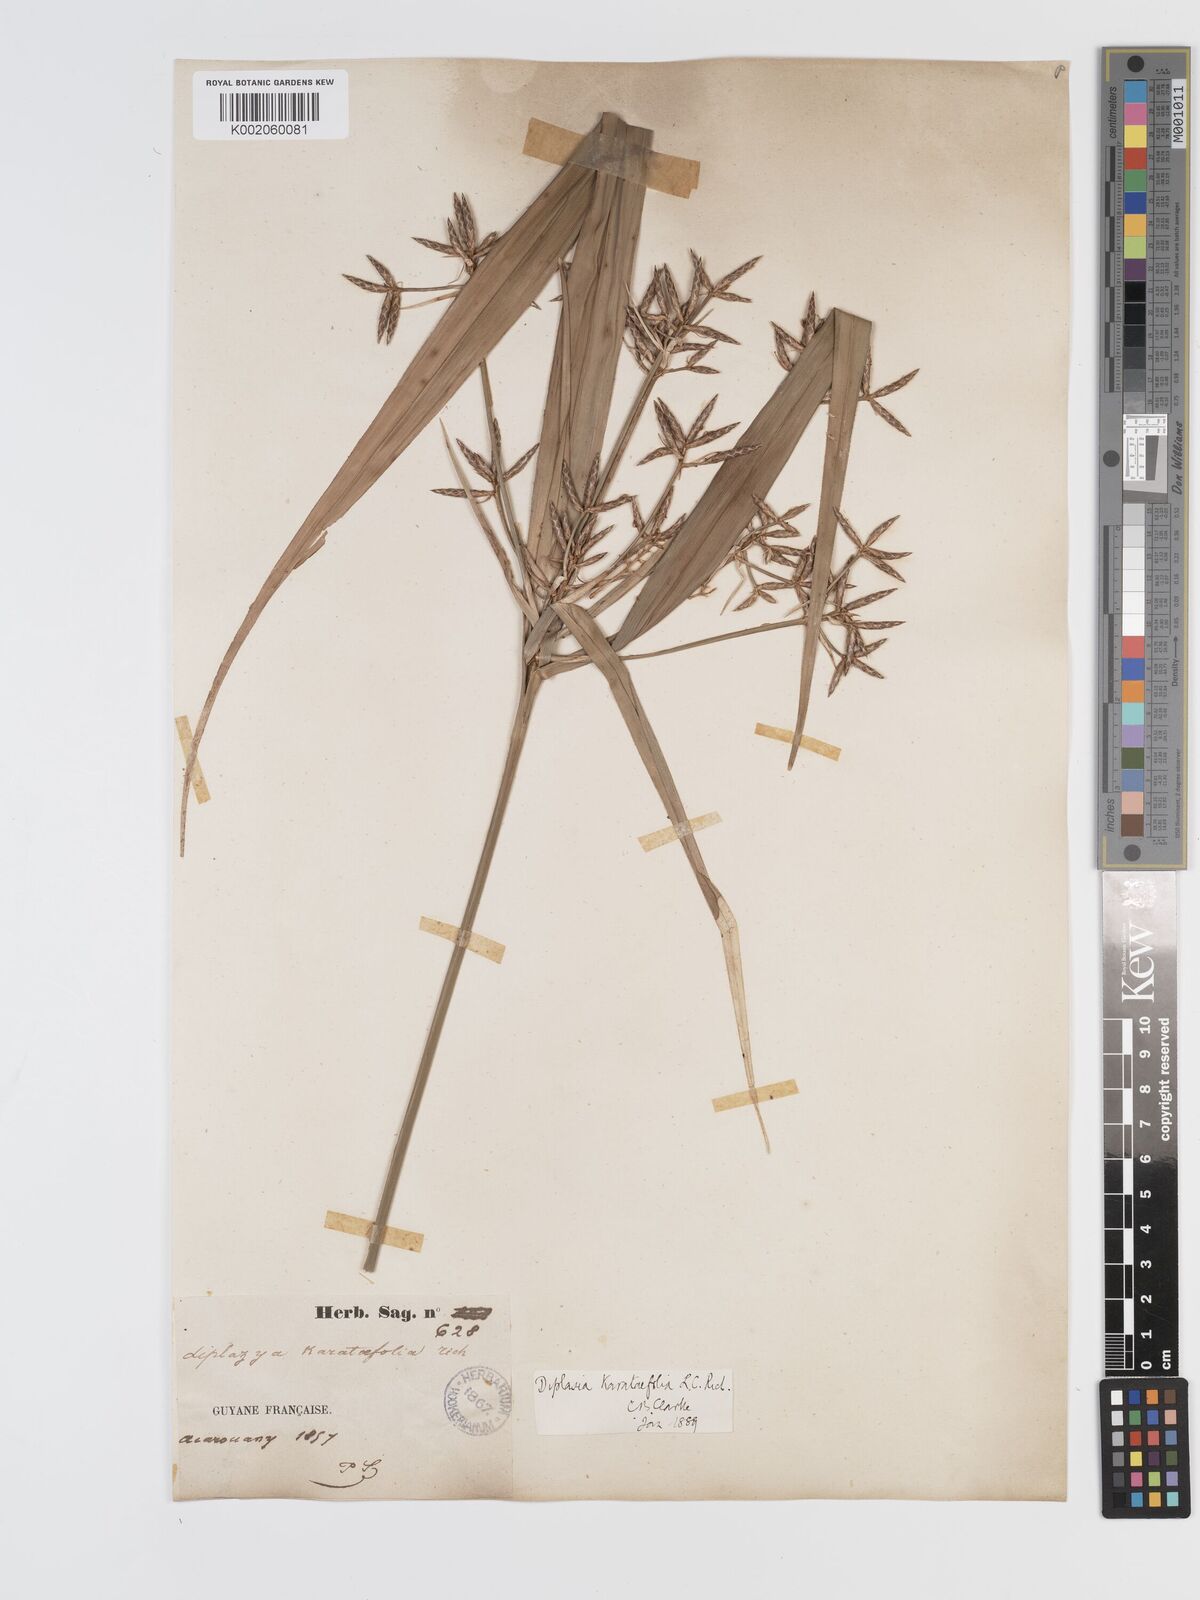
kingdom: Plantae
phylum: Tracheophyta
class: Liliopsida
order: Poales
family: Cyperaceae
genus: Diplasia
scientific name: Diplasia karatifolia
